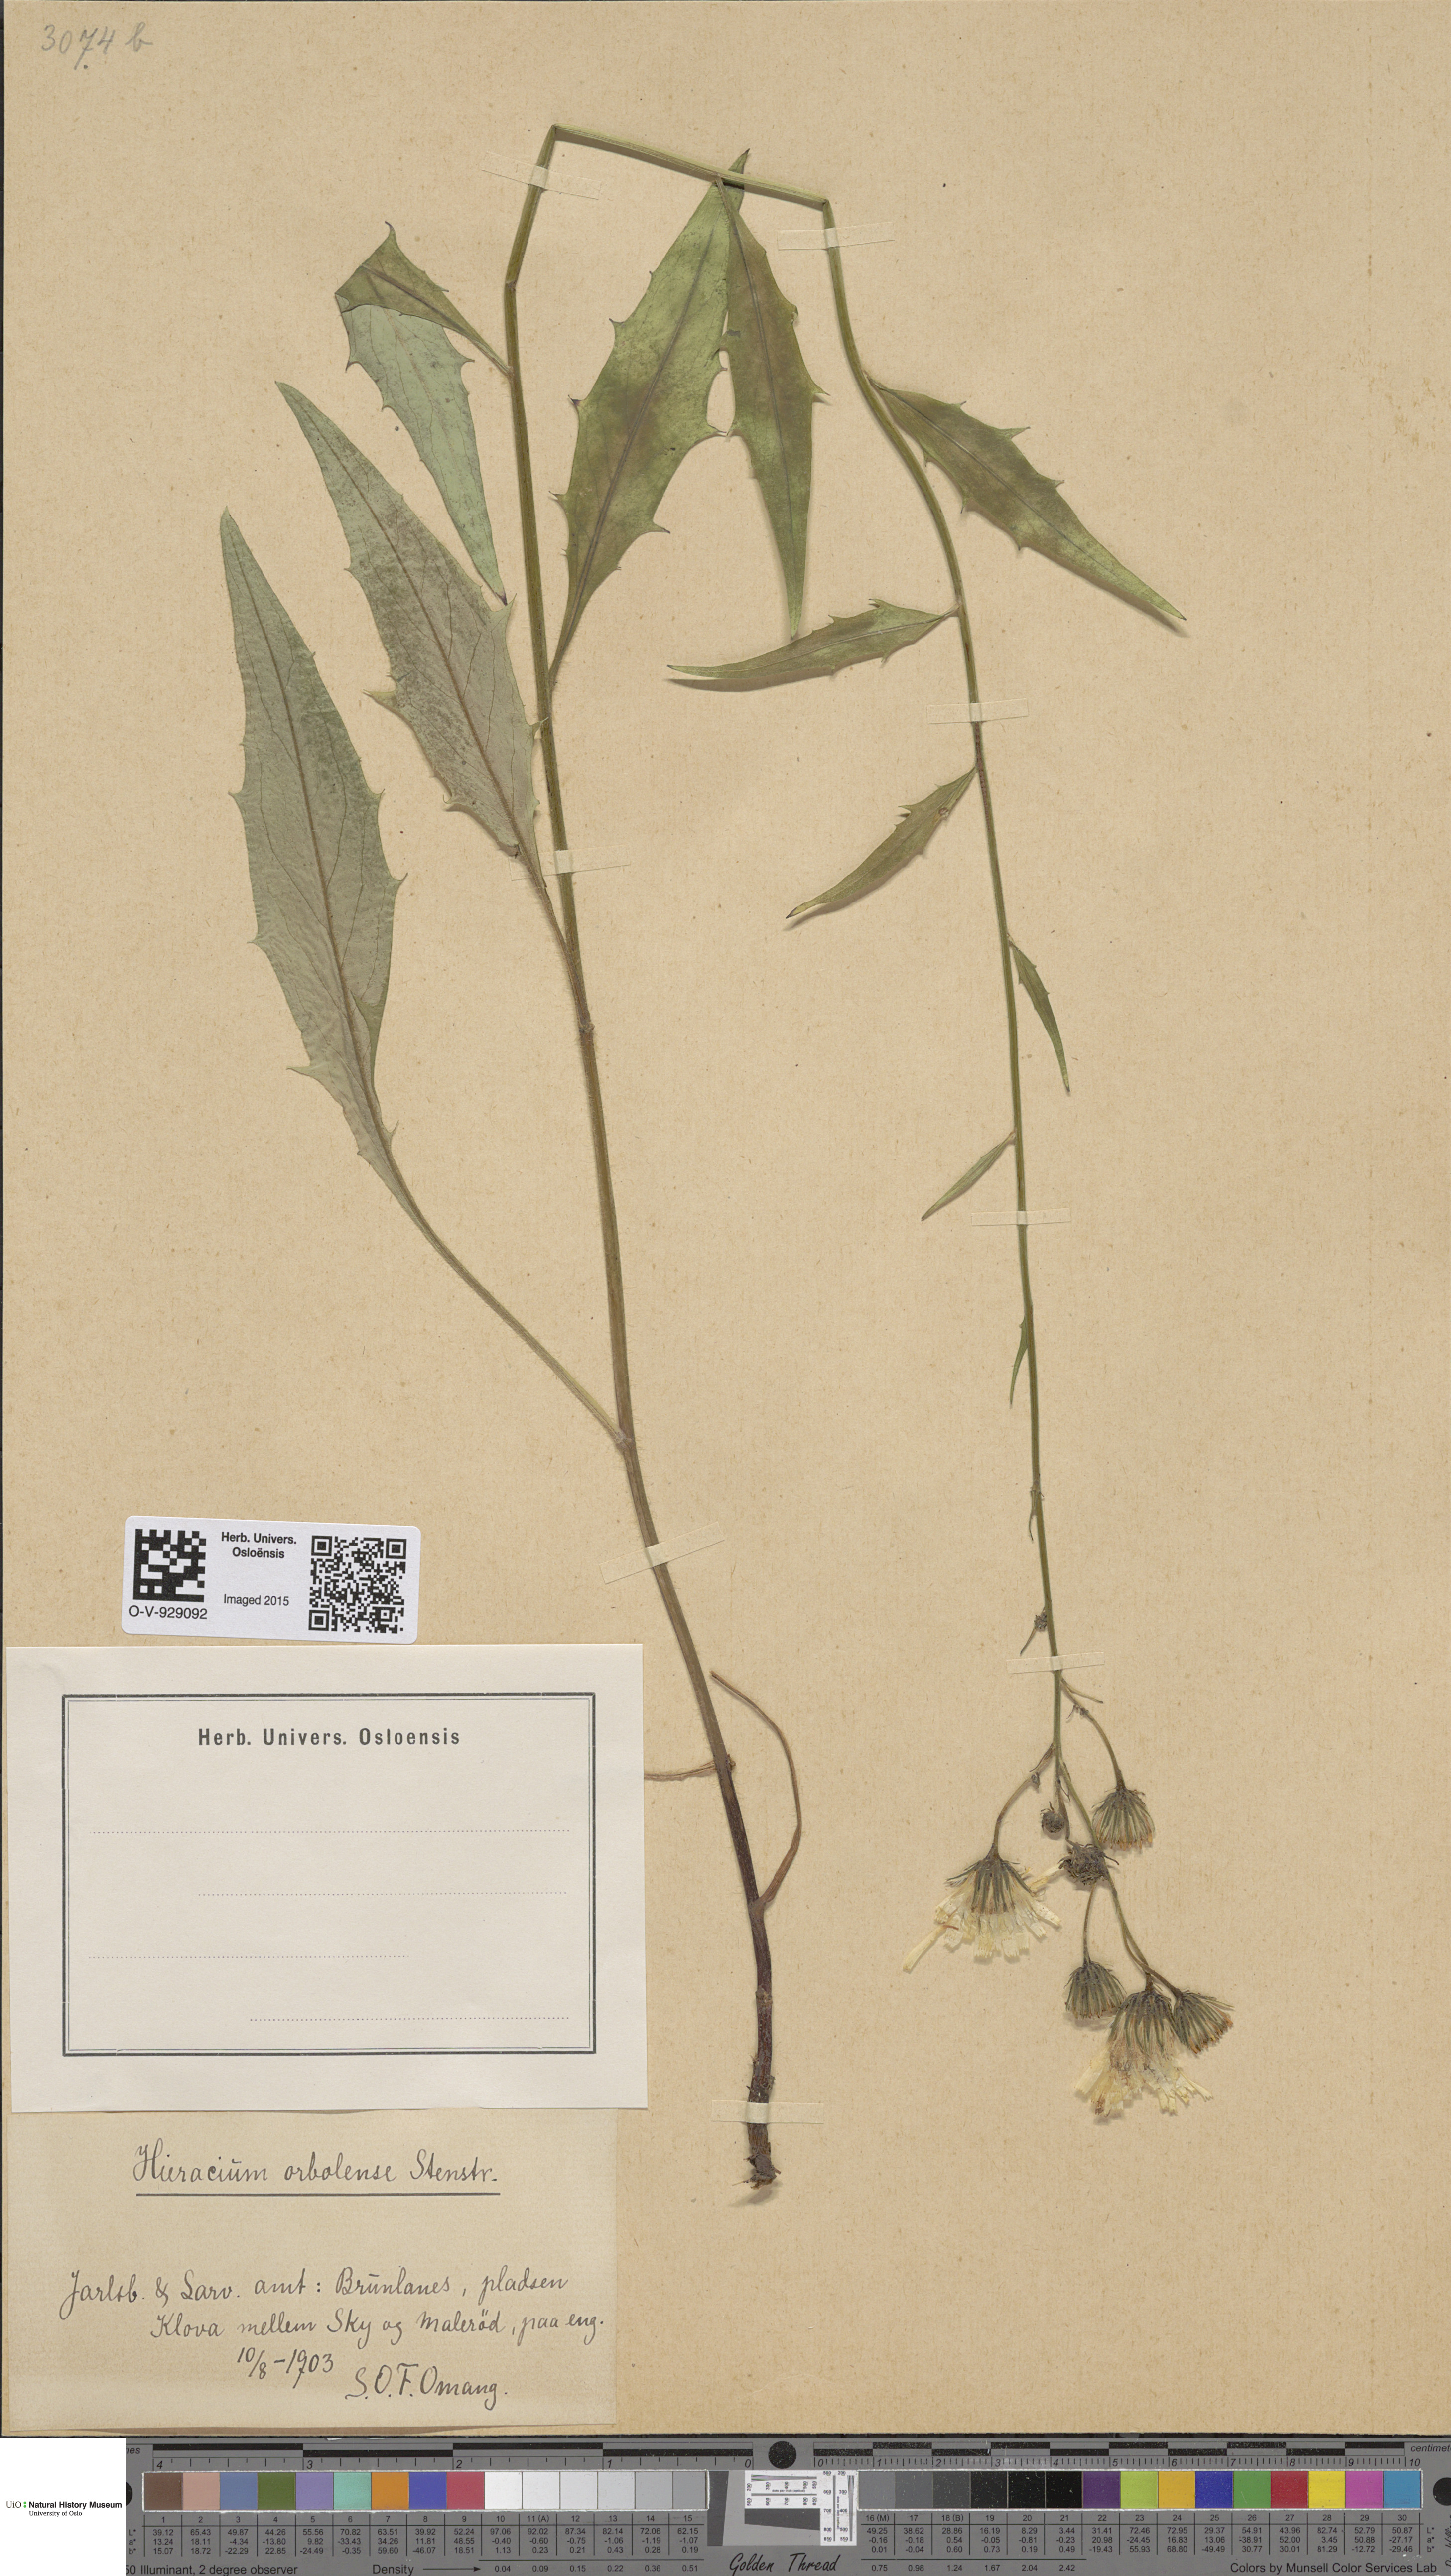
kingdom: Plantae
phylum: Tracheophyta
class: Magnoliopsida
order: Asterales
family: Asteraceae
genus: Hieracium
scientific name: Hieracium orbolense
